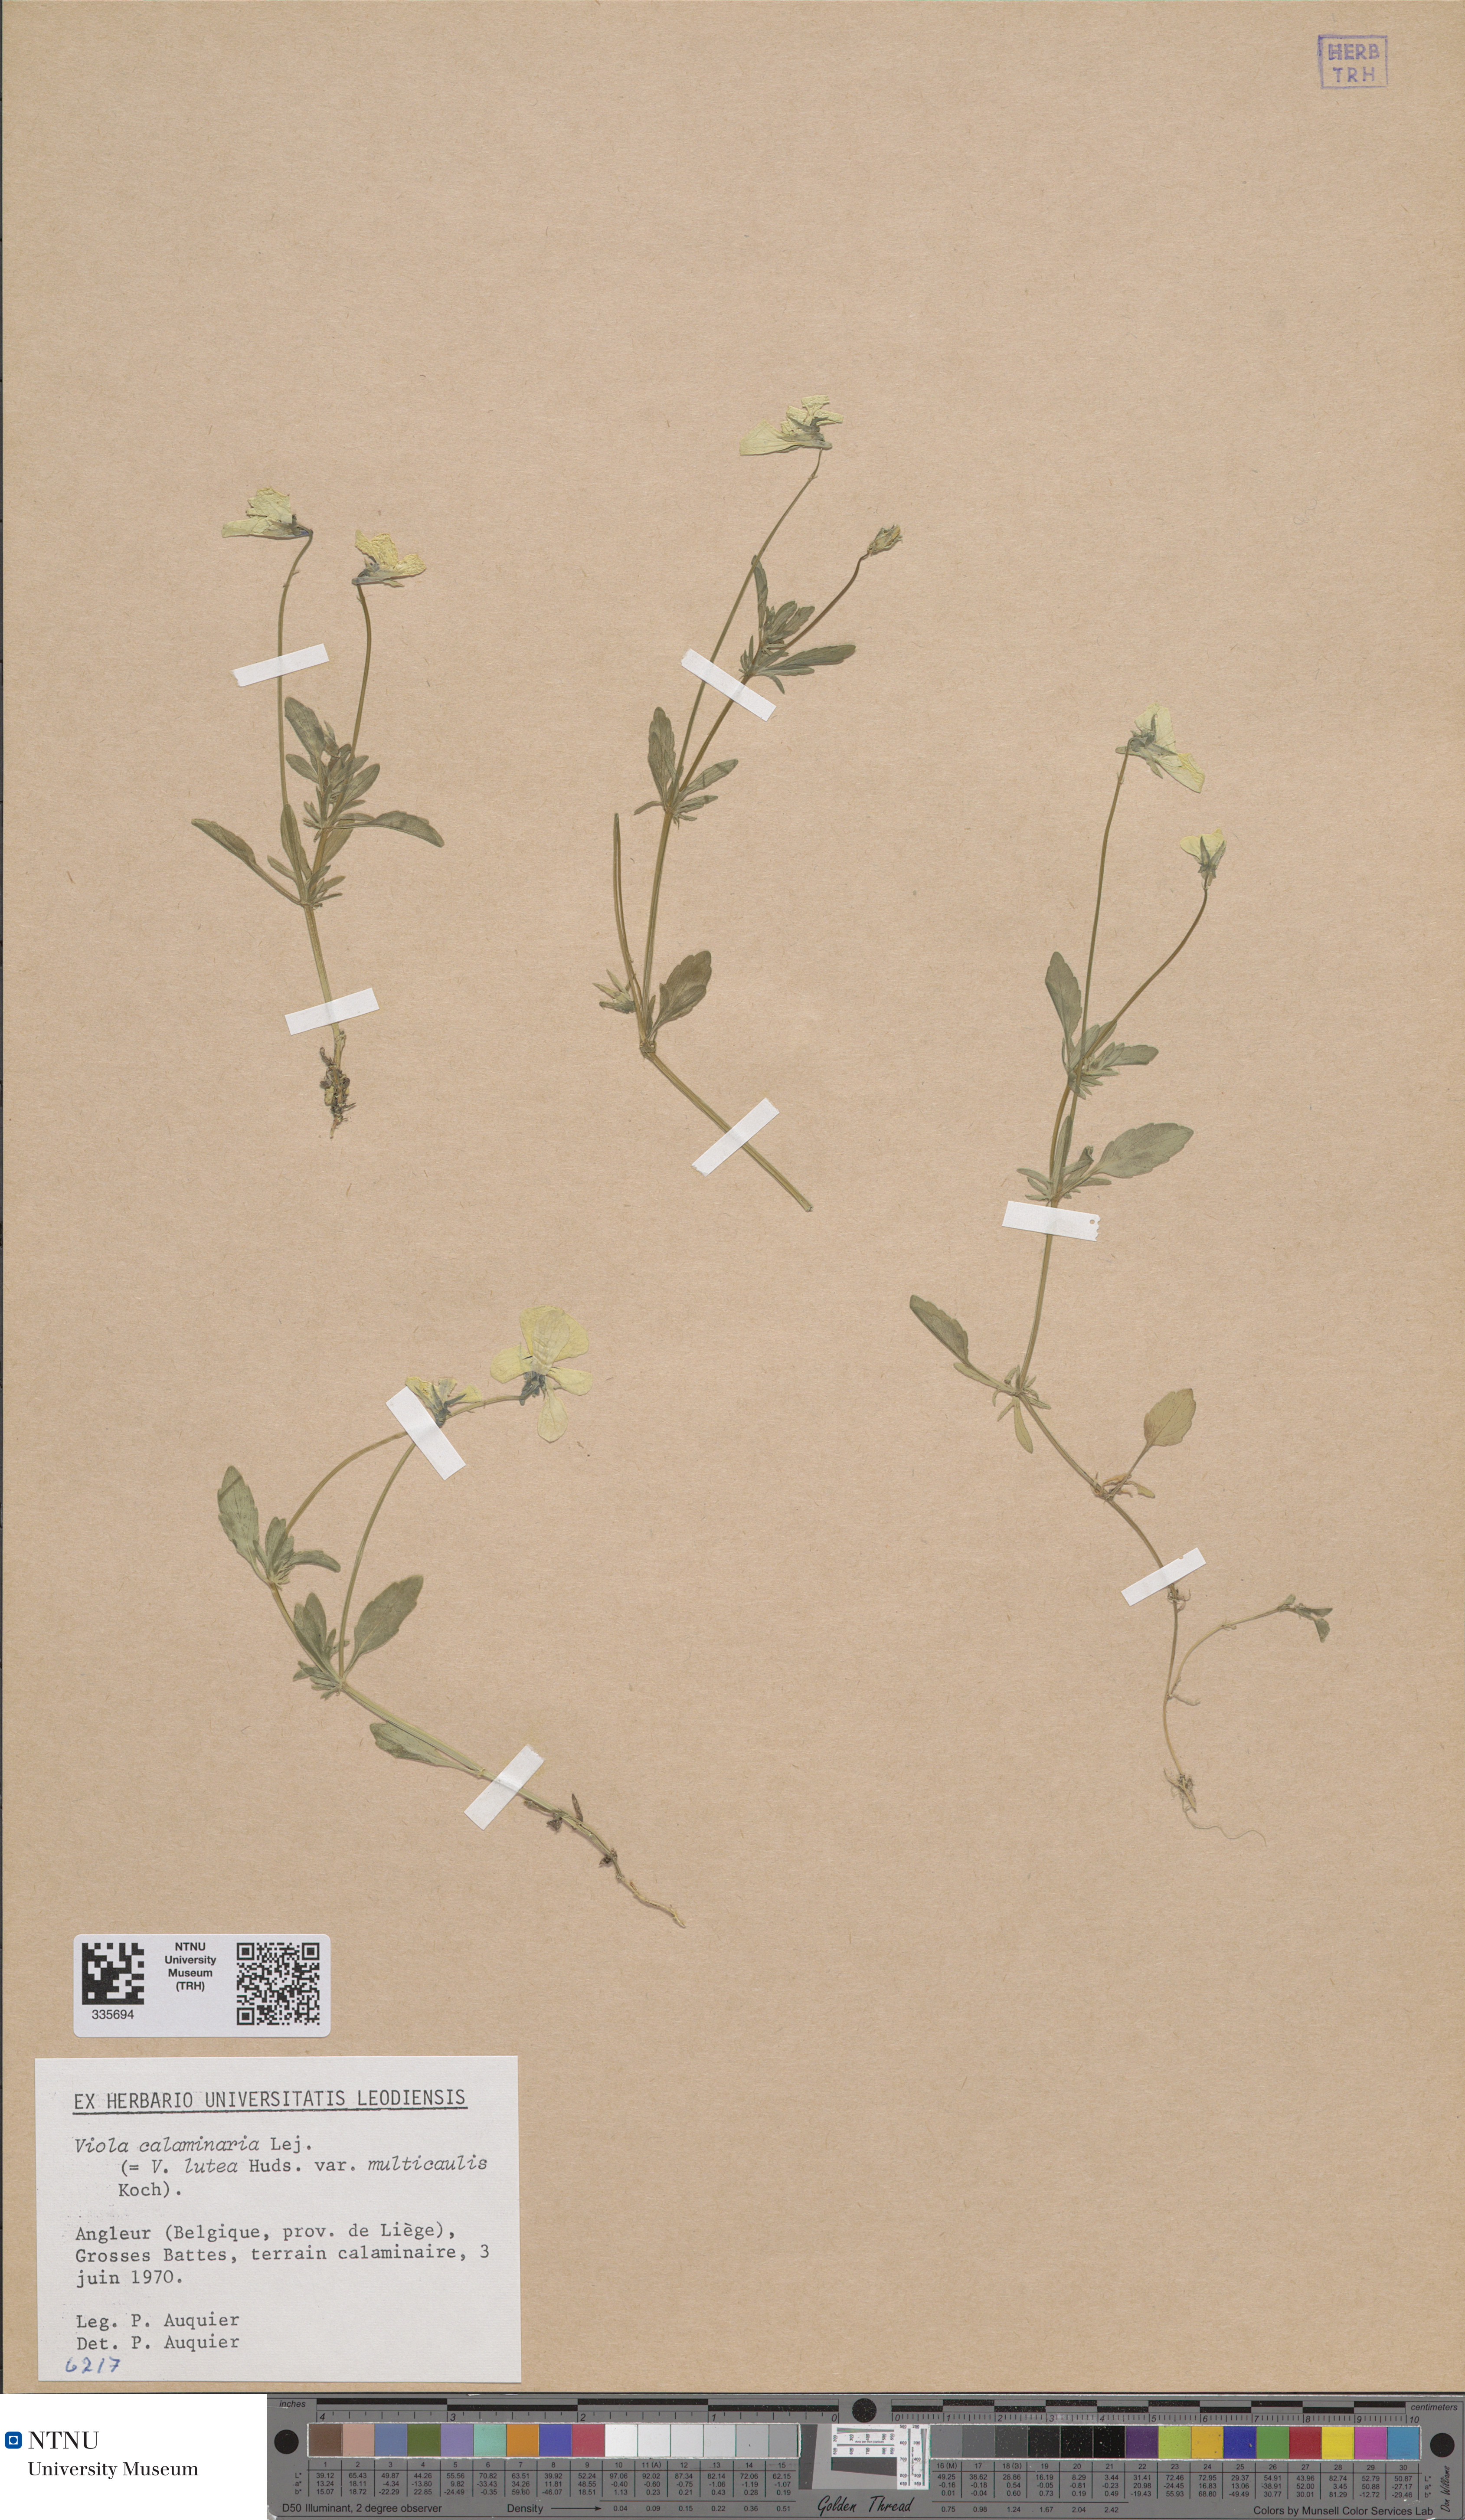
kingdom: Plantae
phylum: Tracheophyta
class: Magnoliopsida
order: Malpighiales
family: Violaceae
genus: Viola
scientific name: Viola lutea
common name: Mountain pansy
